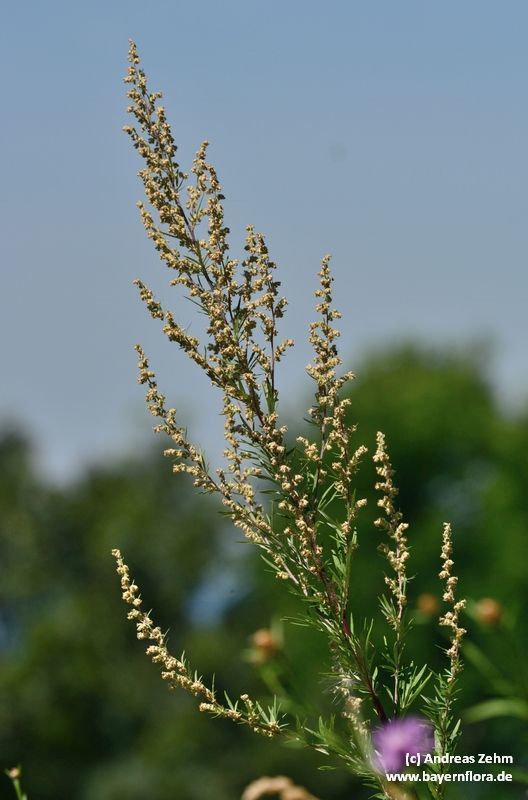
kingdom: Plantae
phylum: Tracheophyta
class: Magnoliopsida
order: Asterales
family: Asteraceae
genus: Artemisia
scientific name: Artemisia vulgaris
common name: Mugwort
